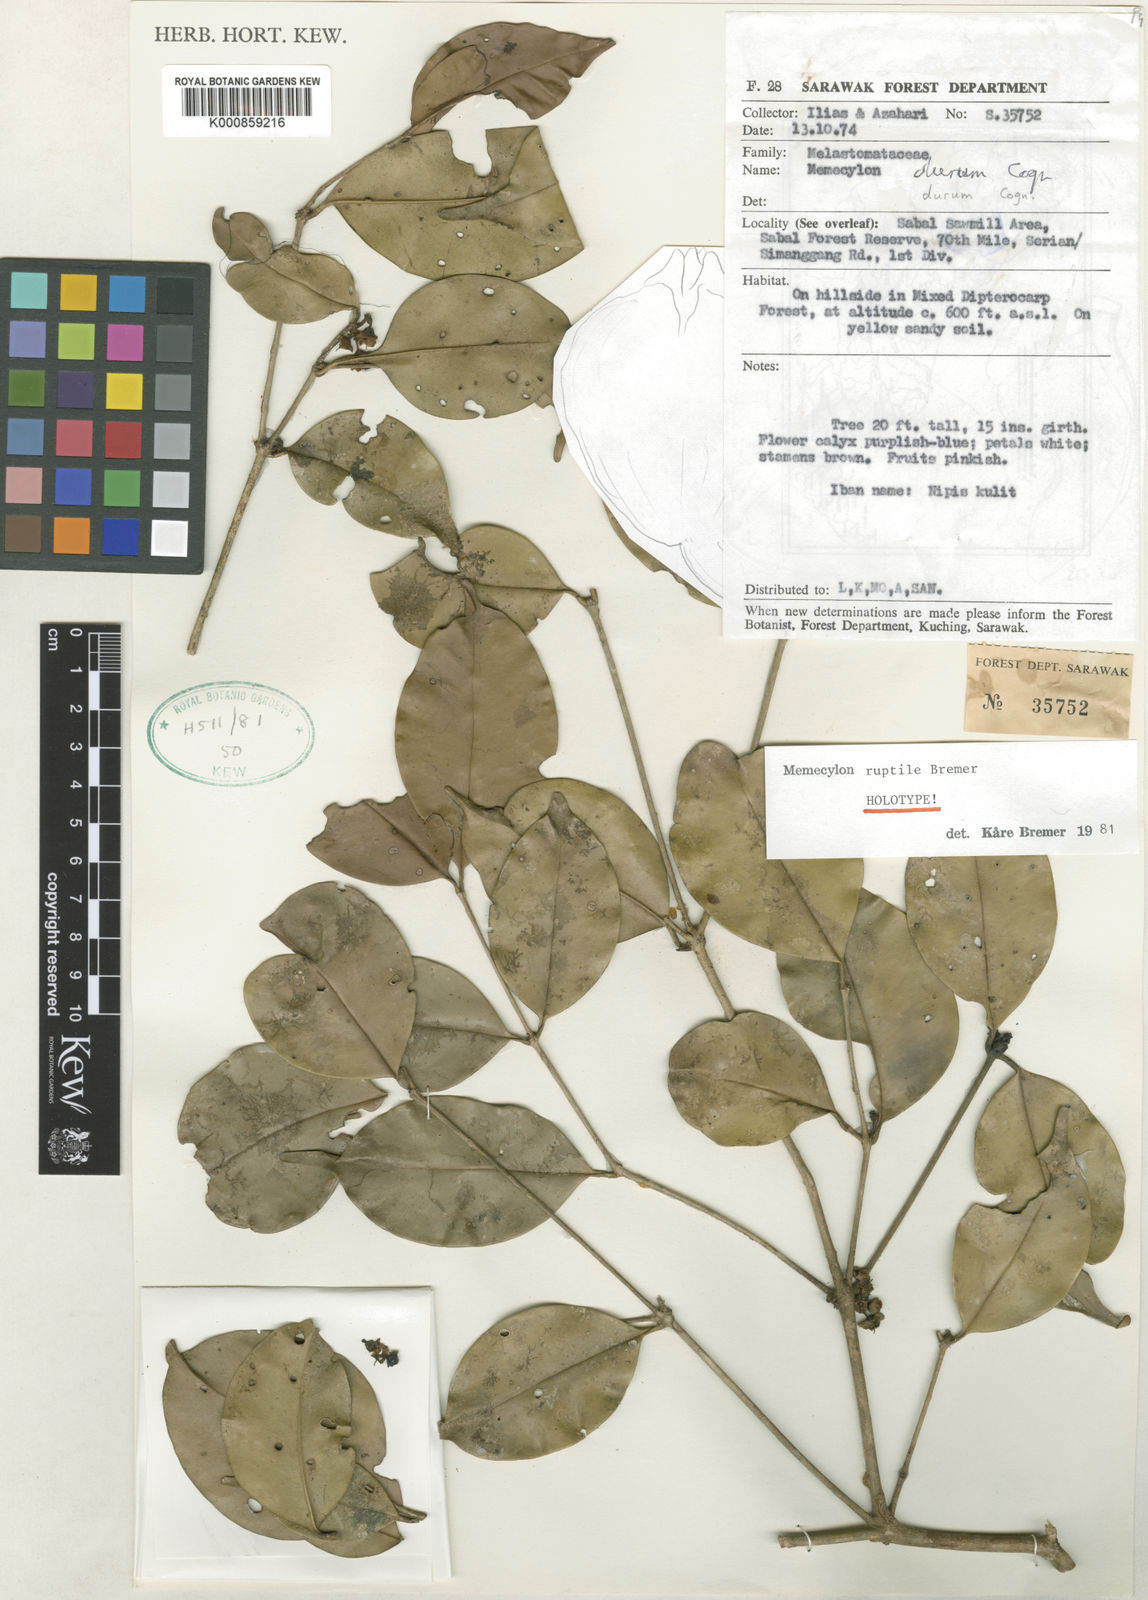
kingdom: Plantae
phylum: Tracheophyta
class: Magnoliopsida
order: Myrtales
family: Melastomataceae
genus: Memecylon
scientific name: Memecylon ruptile
